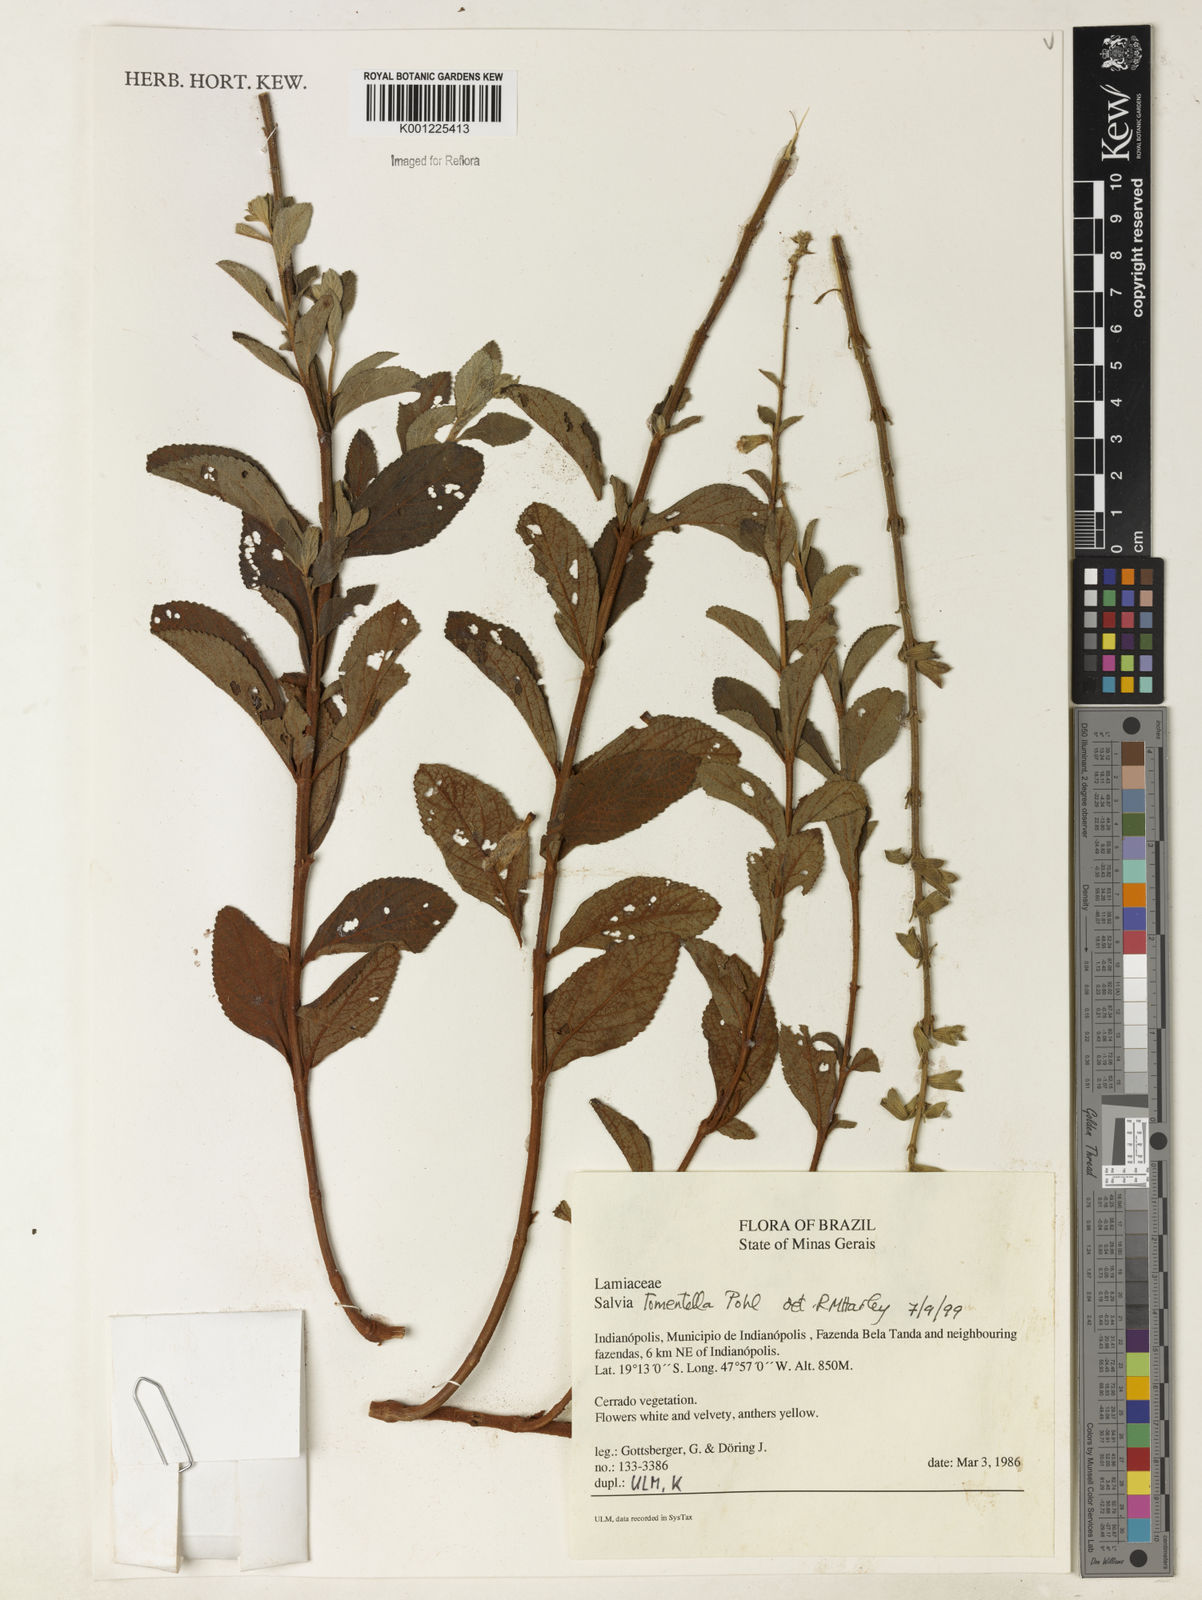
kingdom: Plantae
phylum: Tracheophyta
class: Magnoliopsida
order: Lamiales
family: Lamiaceae
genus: Salvia
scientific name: Salvia tomentella
